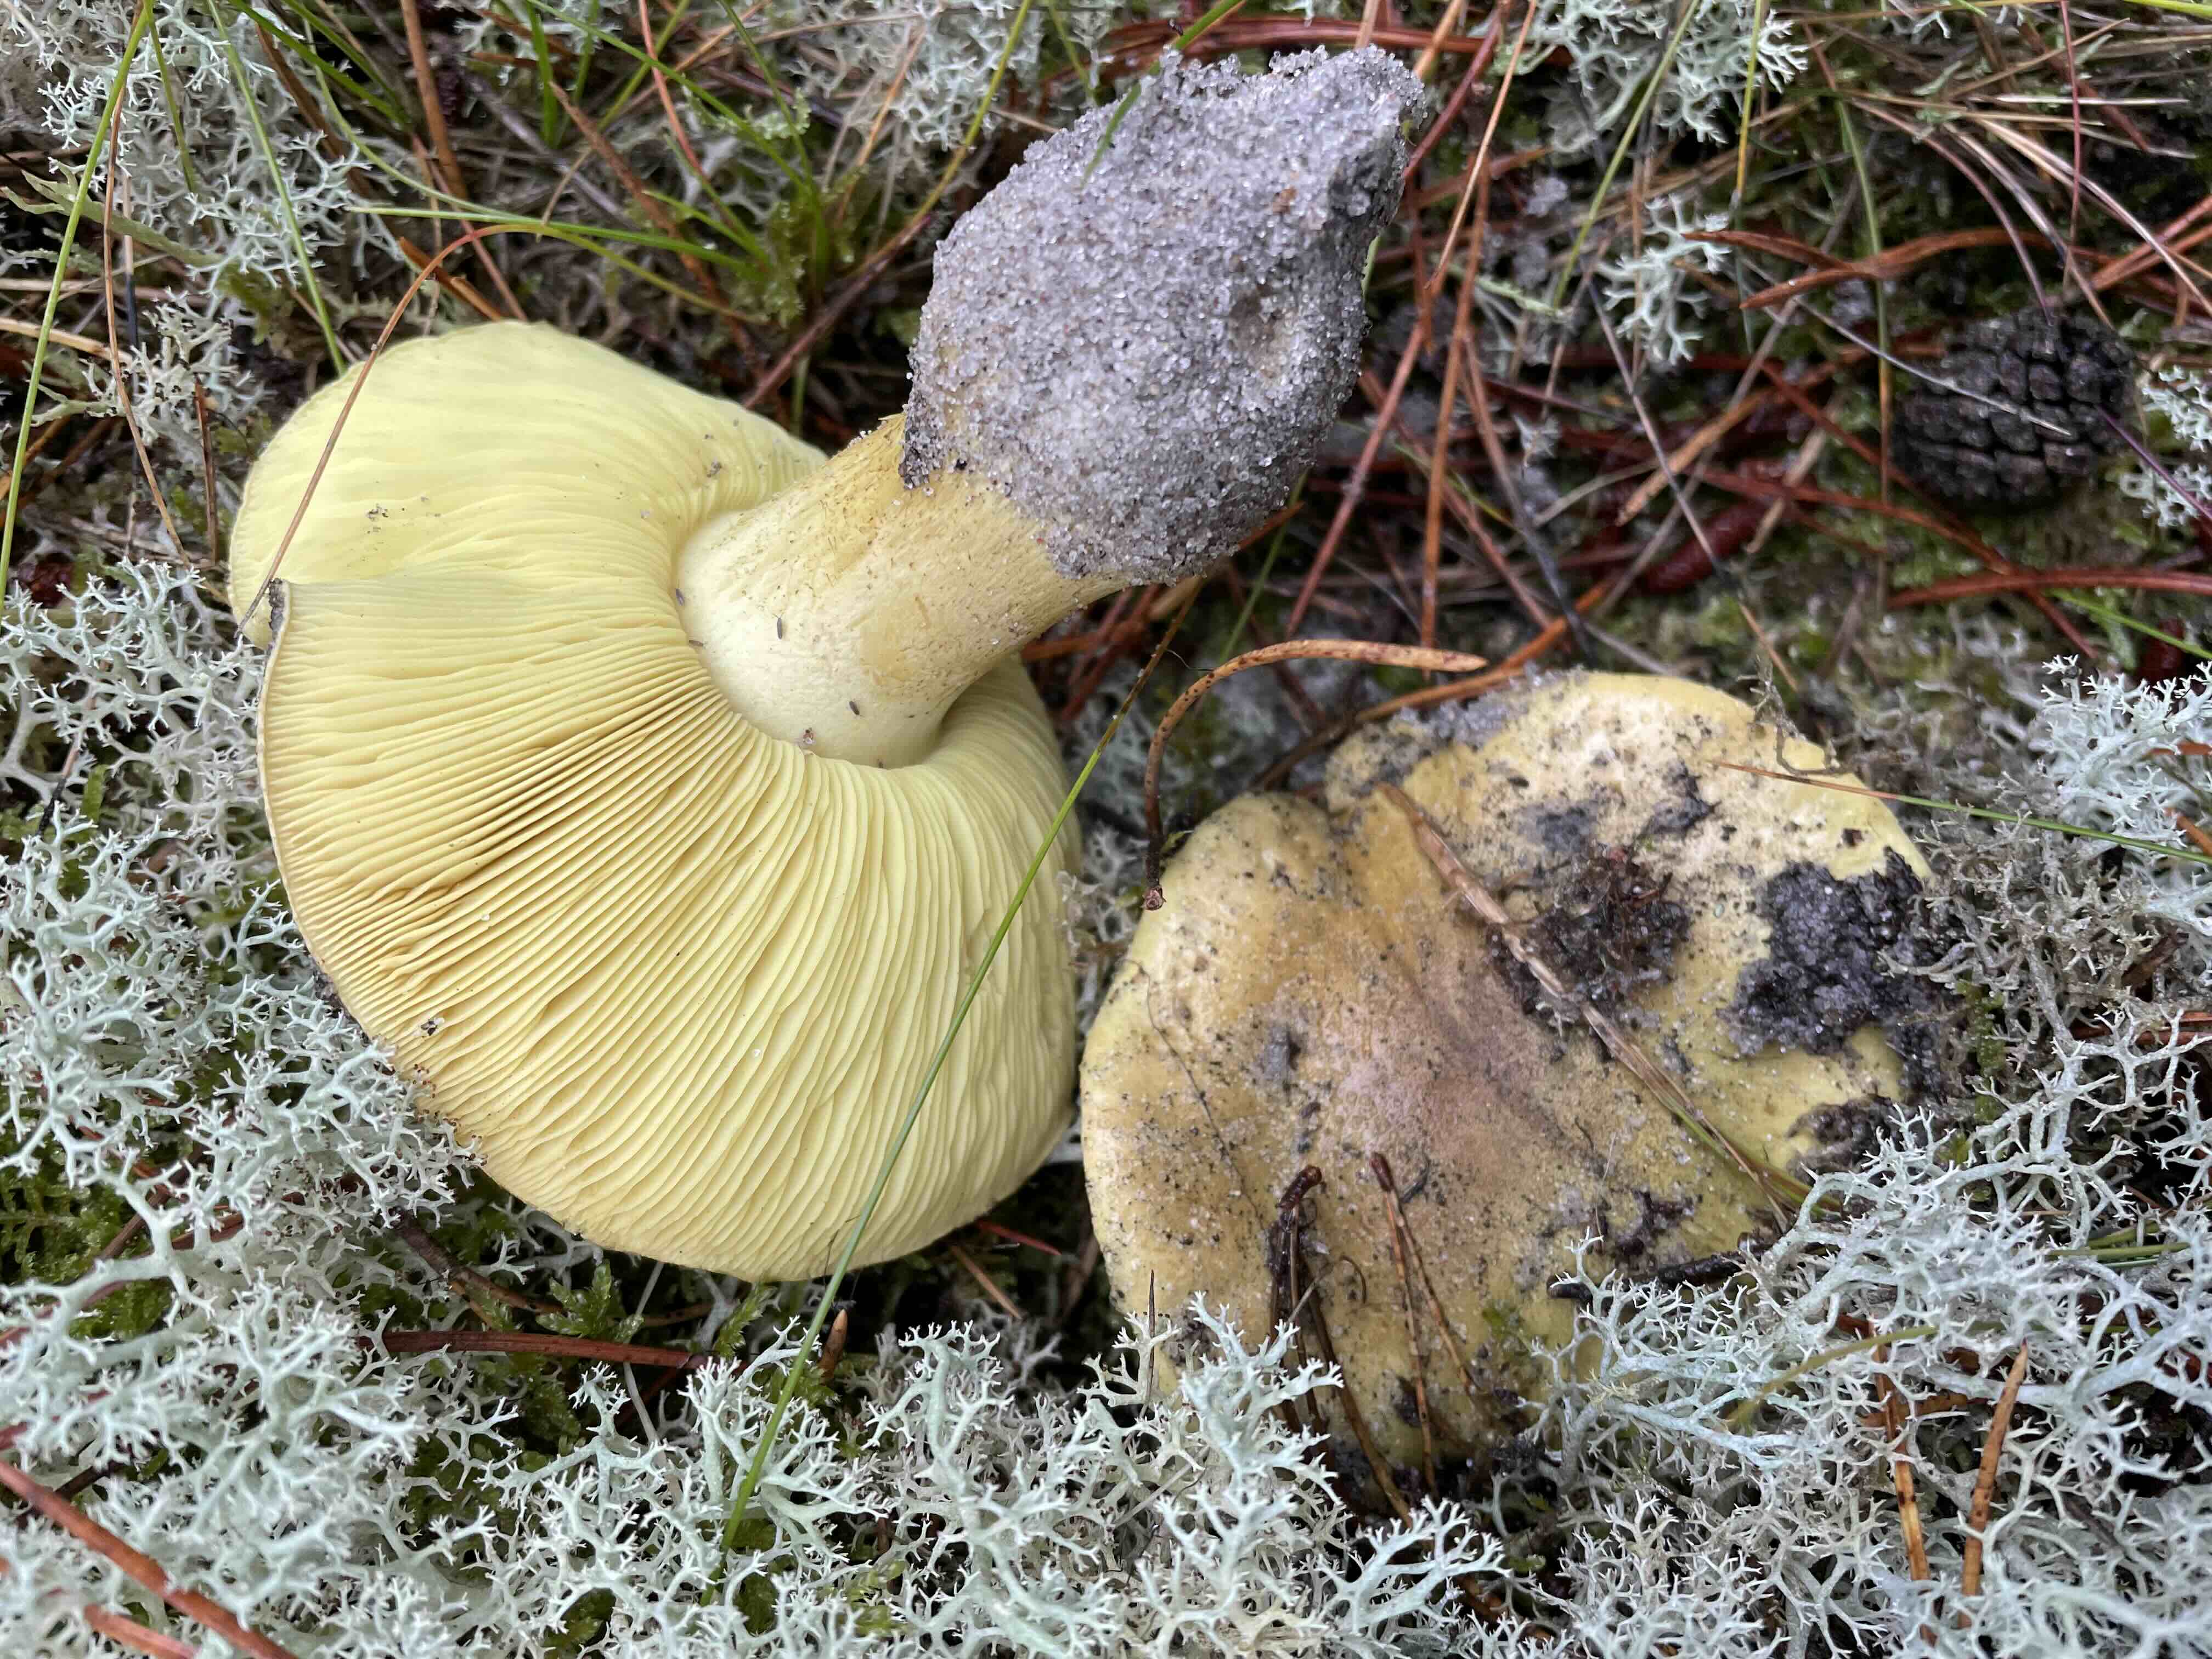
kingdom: Fungi
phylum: Basidiomycota
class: Agaricomycetes
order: Agaricales
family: Tricholomataceae
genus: Tricholoma
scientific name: Tricholoma equestre
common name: ægte ridderhat
